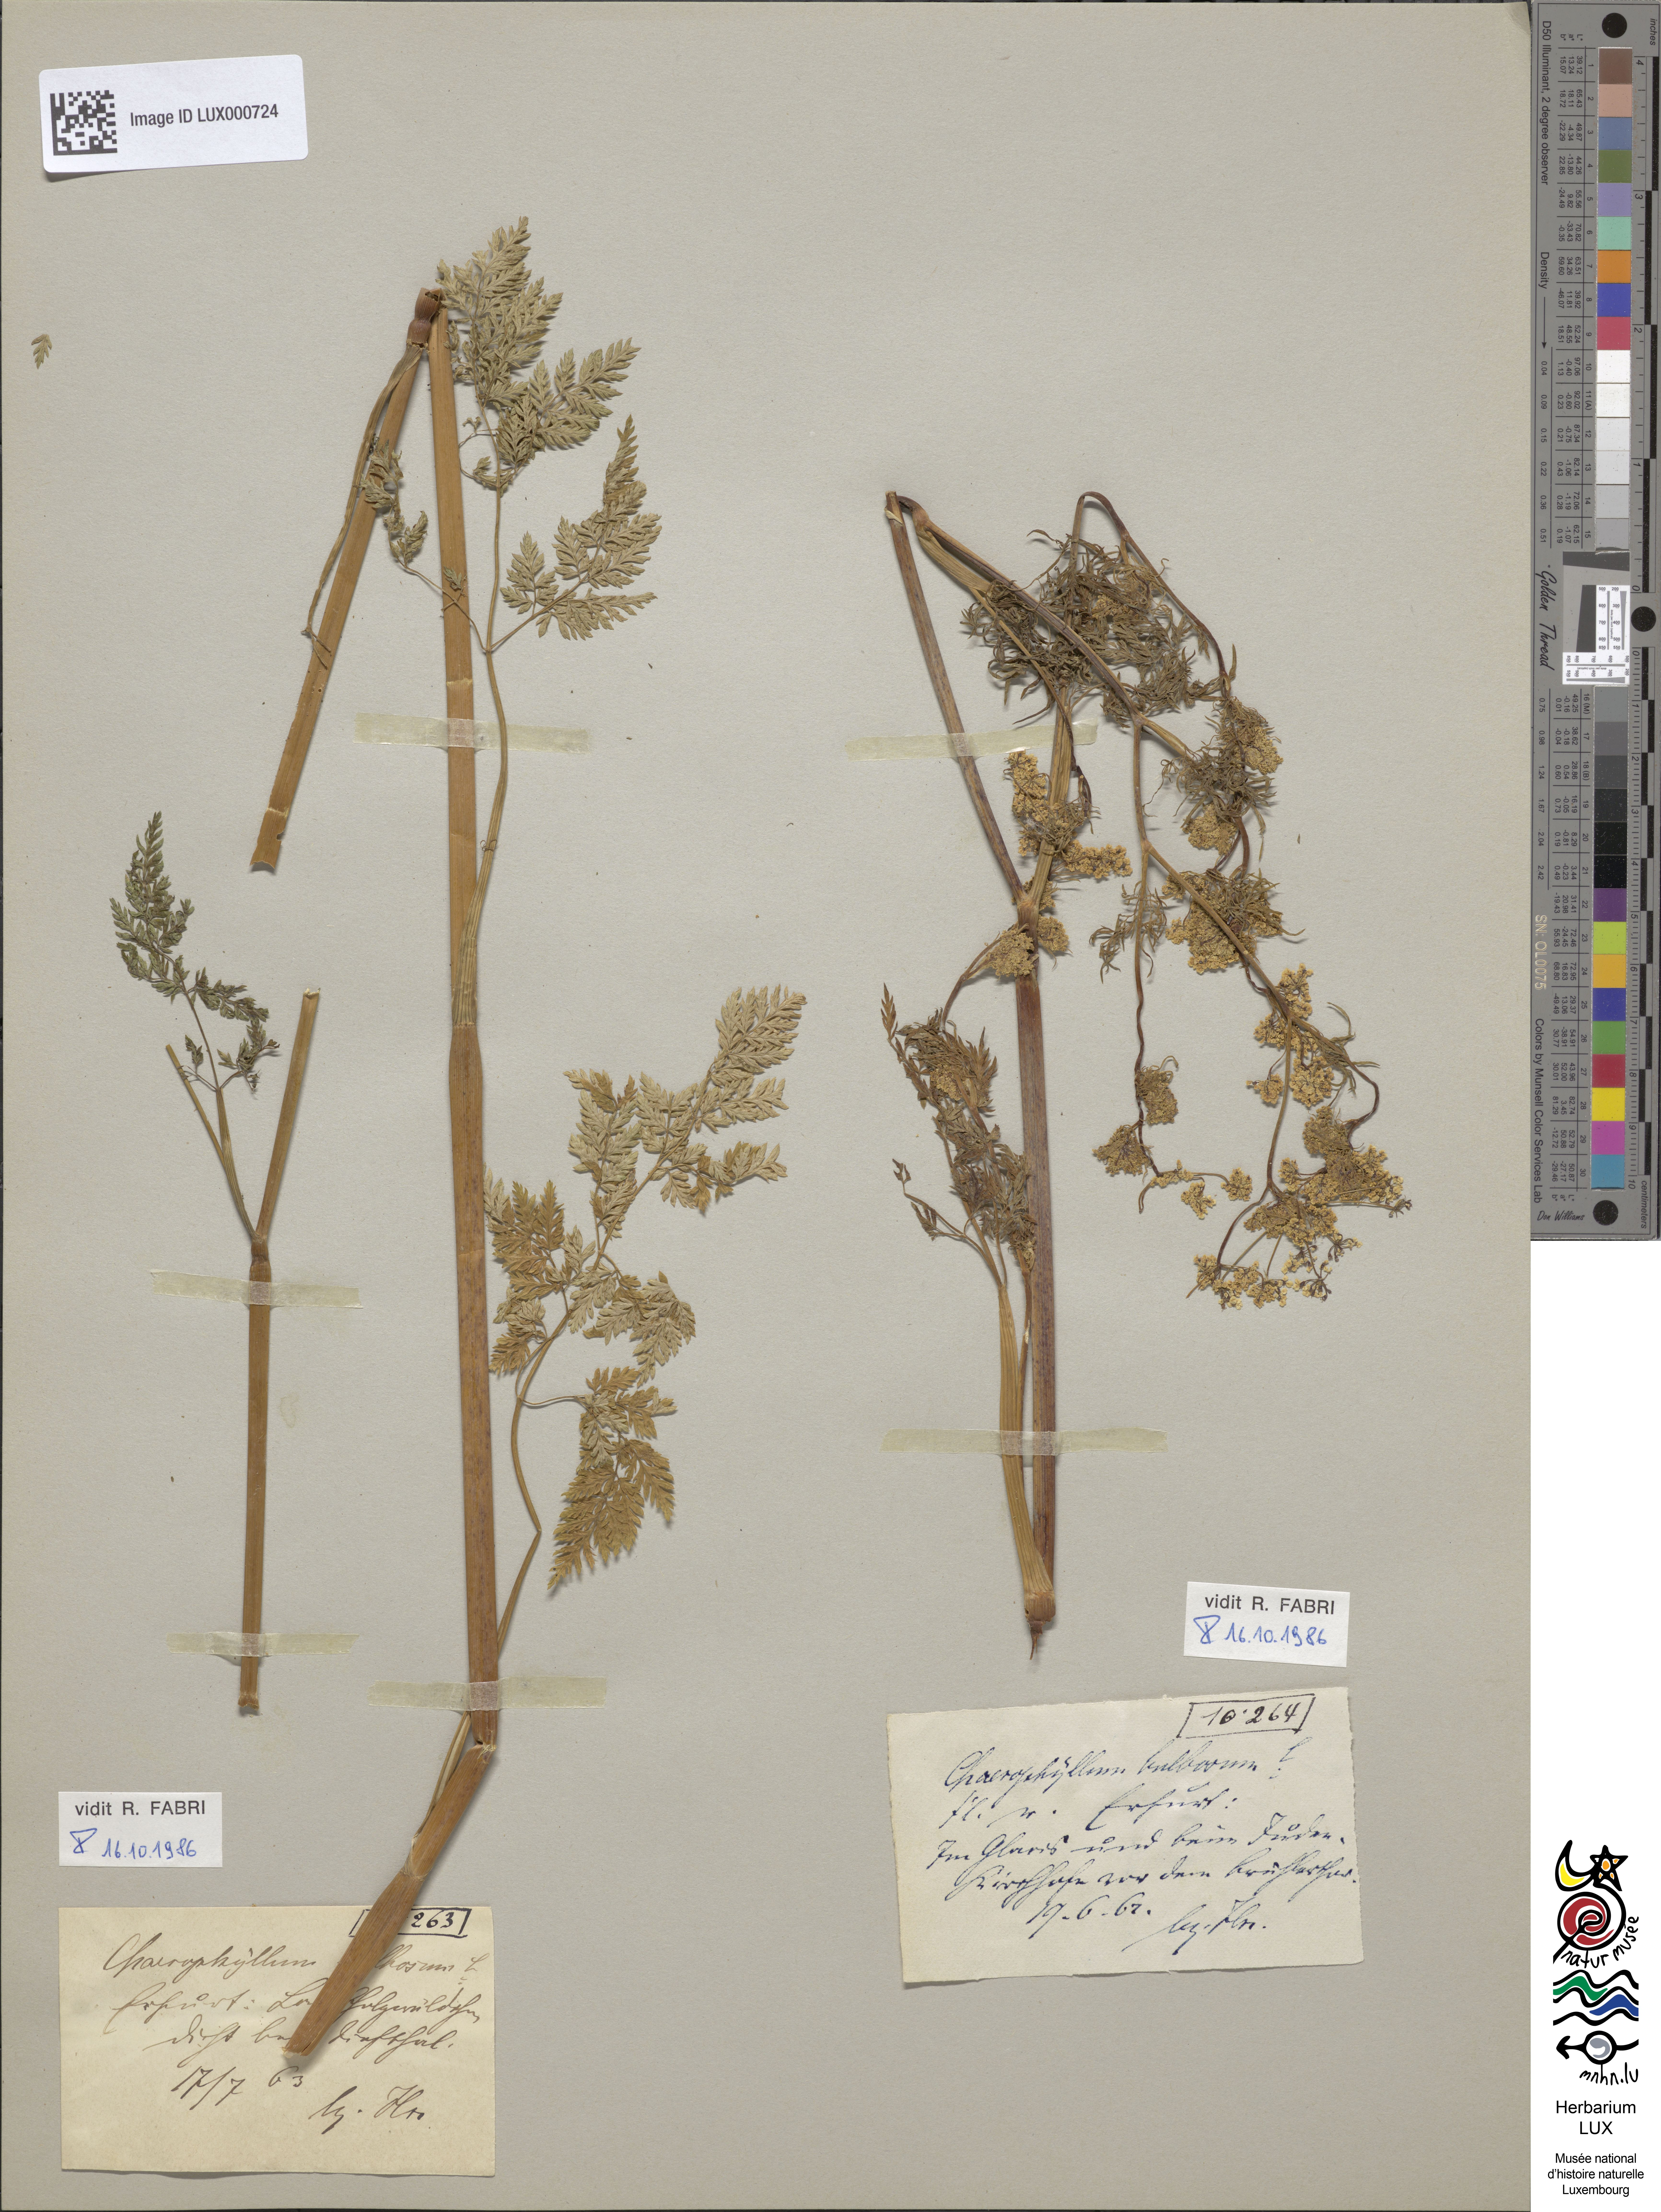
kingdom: Plantae
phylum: Tracheophyta
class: Magnoliopsida
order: Apiales
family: Apiaceae
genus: Chaerophyllum
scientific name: Chaerophyllum bulbosum
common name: Bulbous chervil
